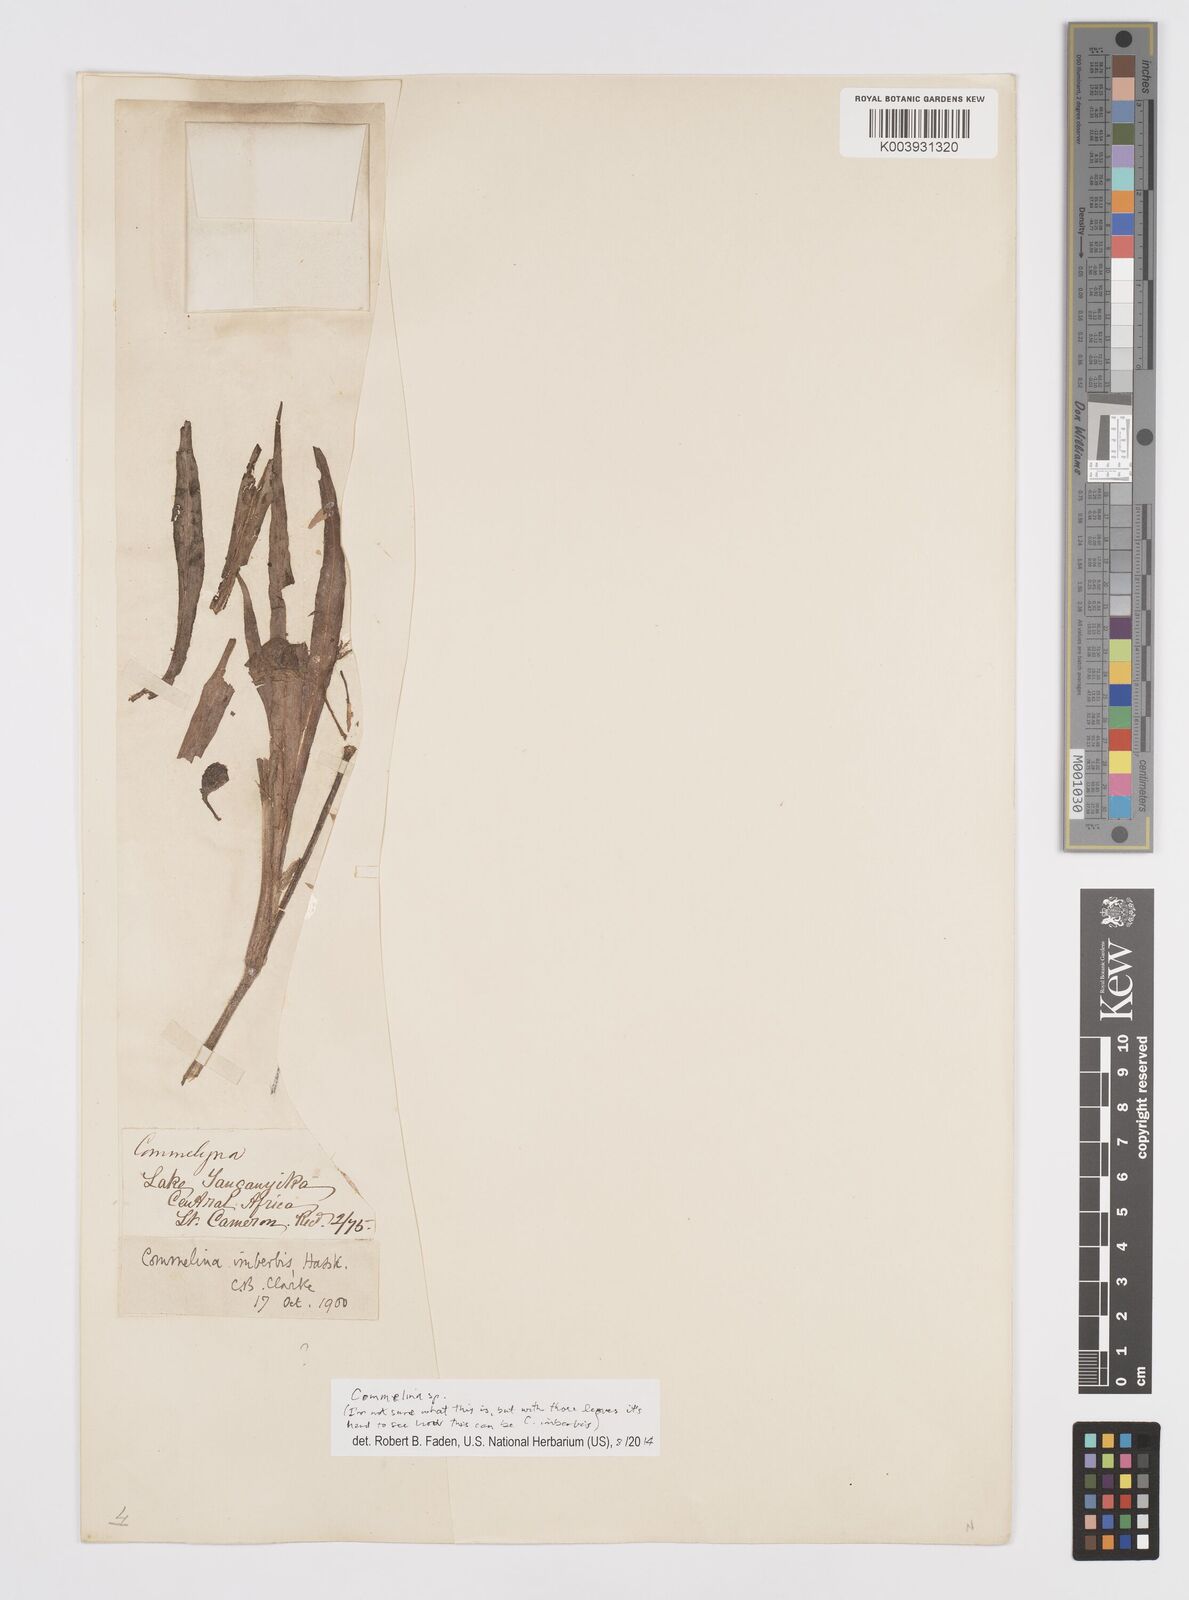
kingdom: Plantae
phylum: Tracheophyta
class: Liliopsida
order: Commelinales
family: Commelinaceae
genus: Commelina
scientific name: Commelina
